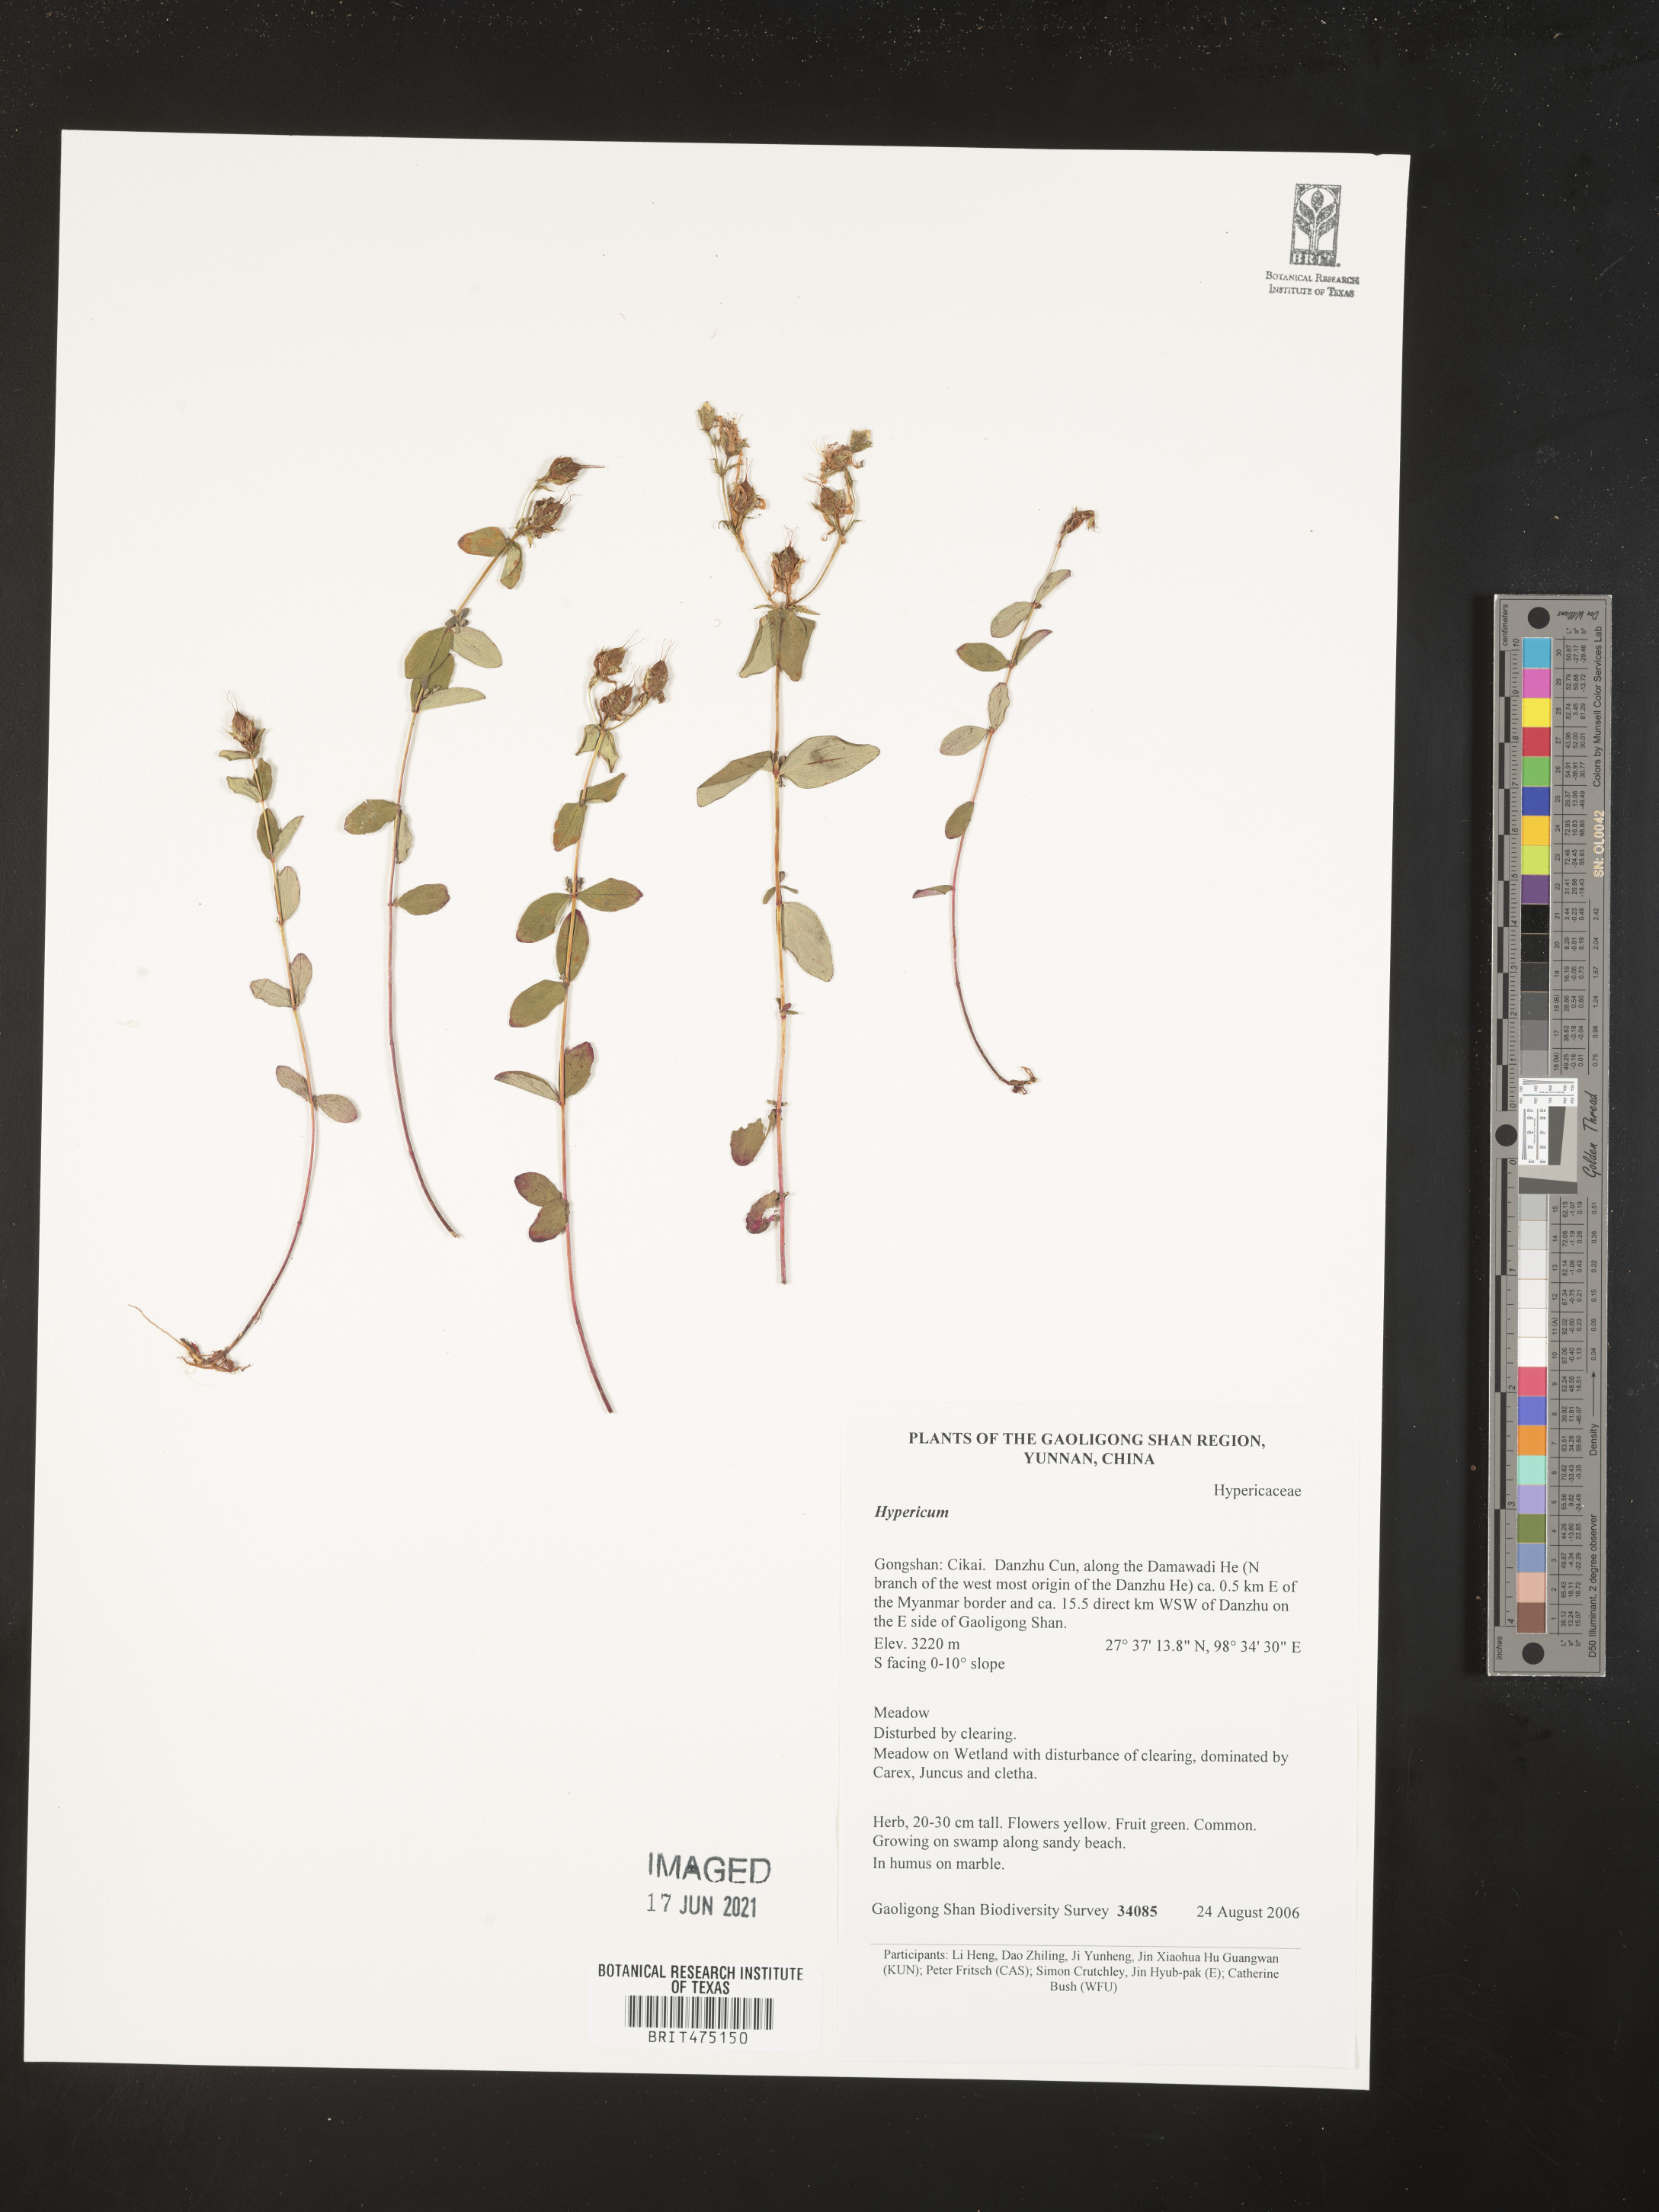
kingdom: Plantae
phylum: Tracheophyta
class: Magnoliopsida
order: Malpighiales
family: Hypericaceae
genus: Hypericum
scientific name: Hypericum
